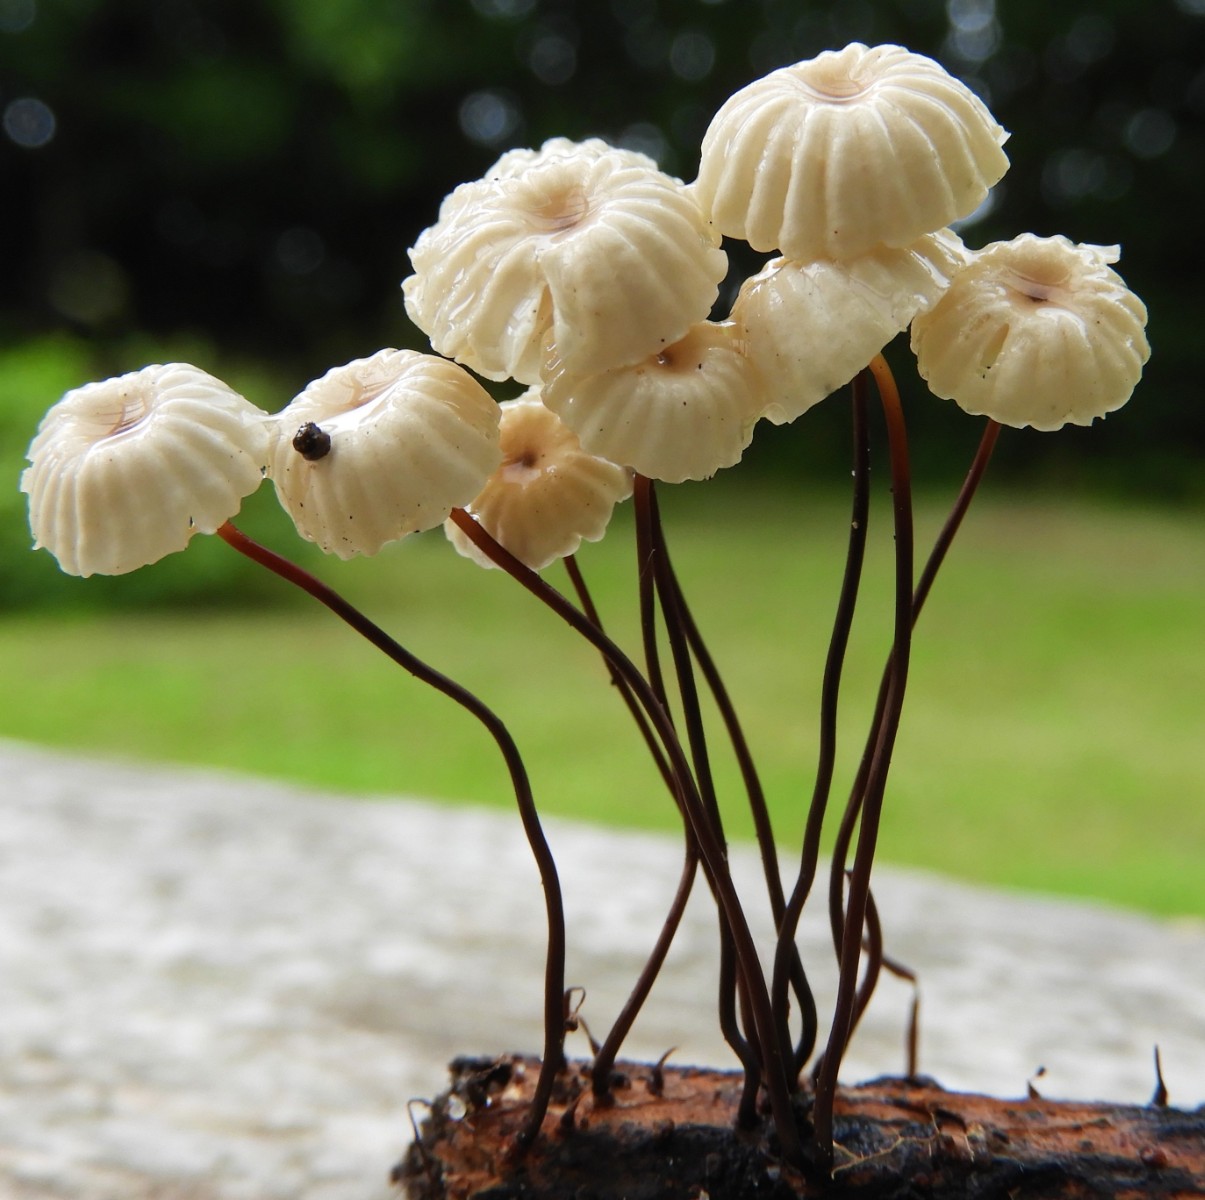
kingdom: Fungi
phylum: Basidiomycota
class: Agaricomycetes
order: Agaricales
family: Marasmiaceae
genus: Marasmius
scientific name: Marasmius rotula
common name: hjul-bruskhat
